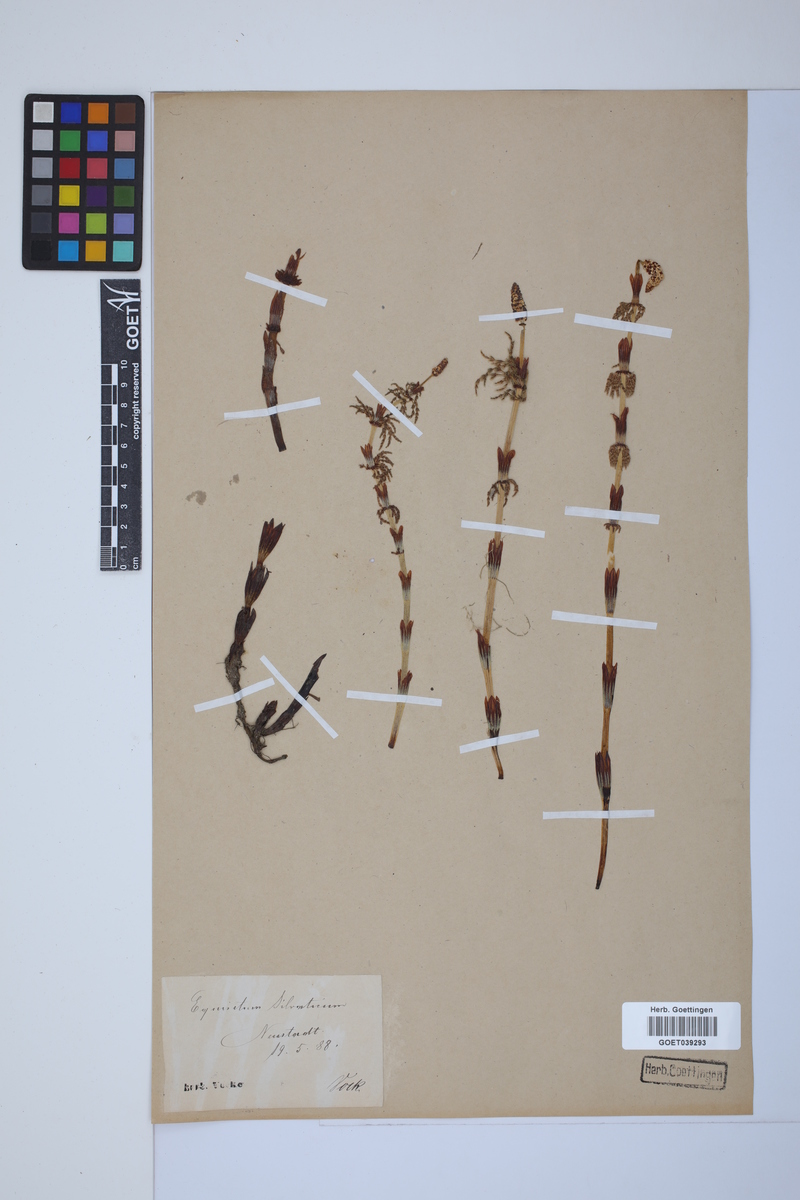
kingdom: Plantae
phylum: Tracheophyta
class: Polypodiopsida
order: Equisetales
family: Equisetaceae
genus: Equisetum
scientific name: Equisetum sylvaticum
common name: Wood horsetail
